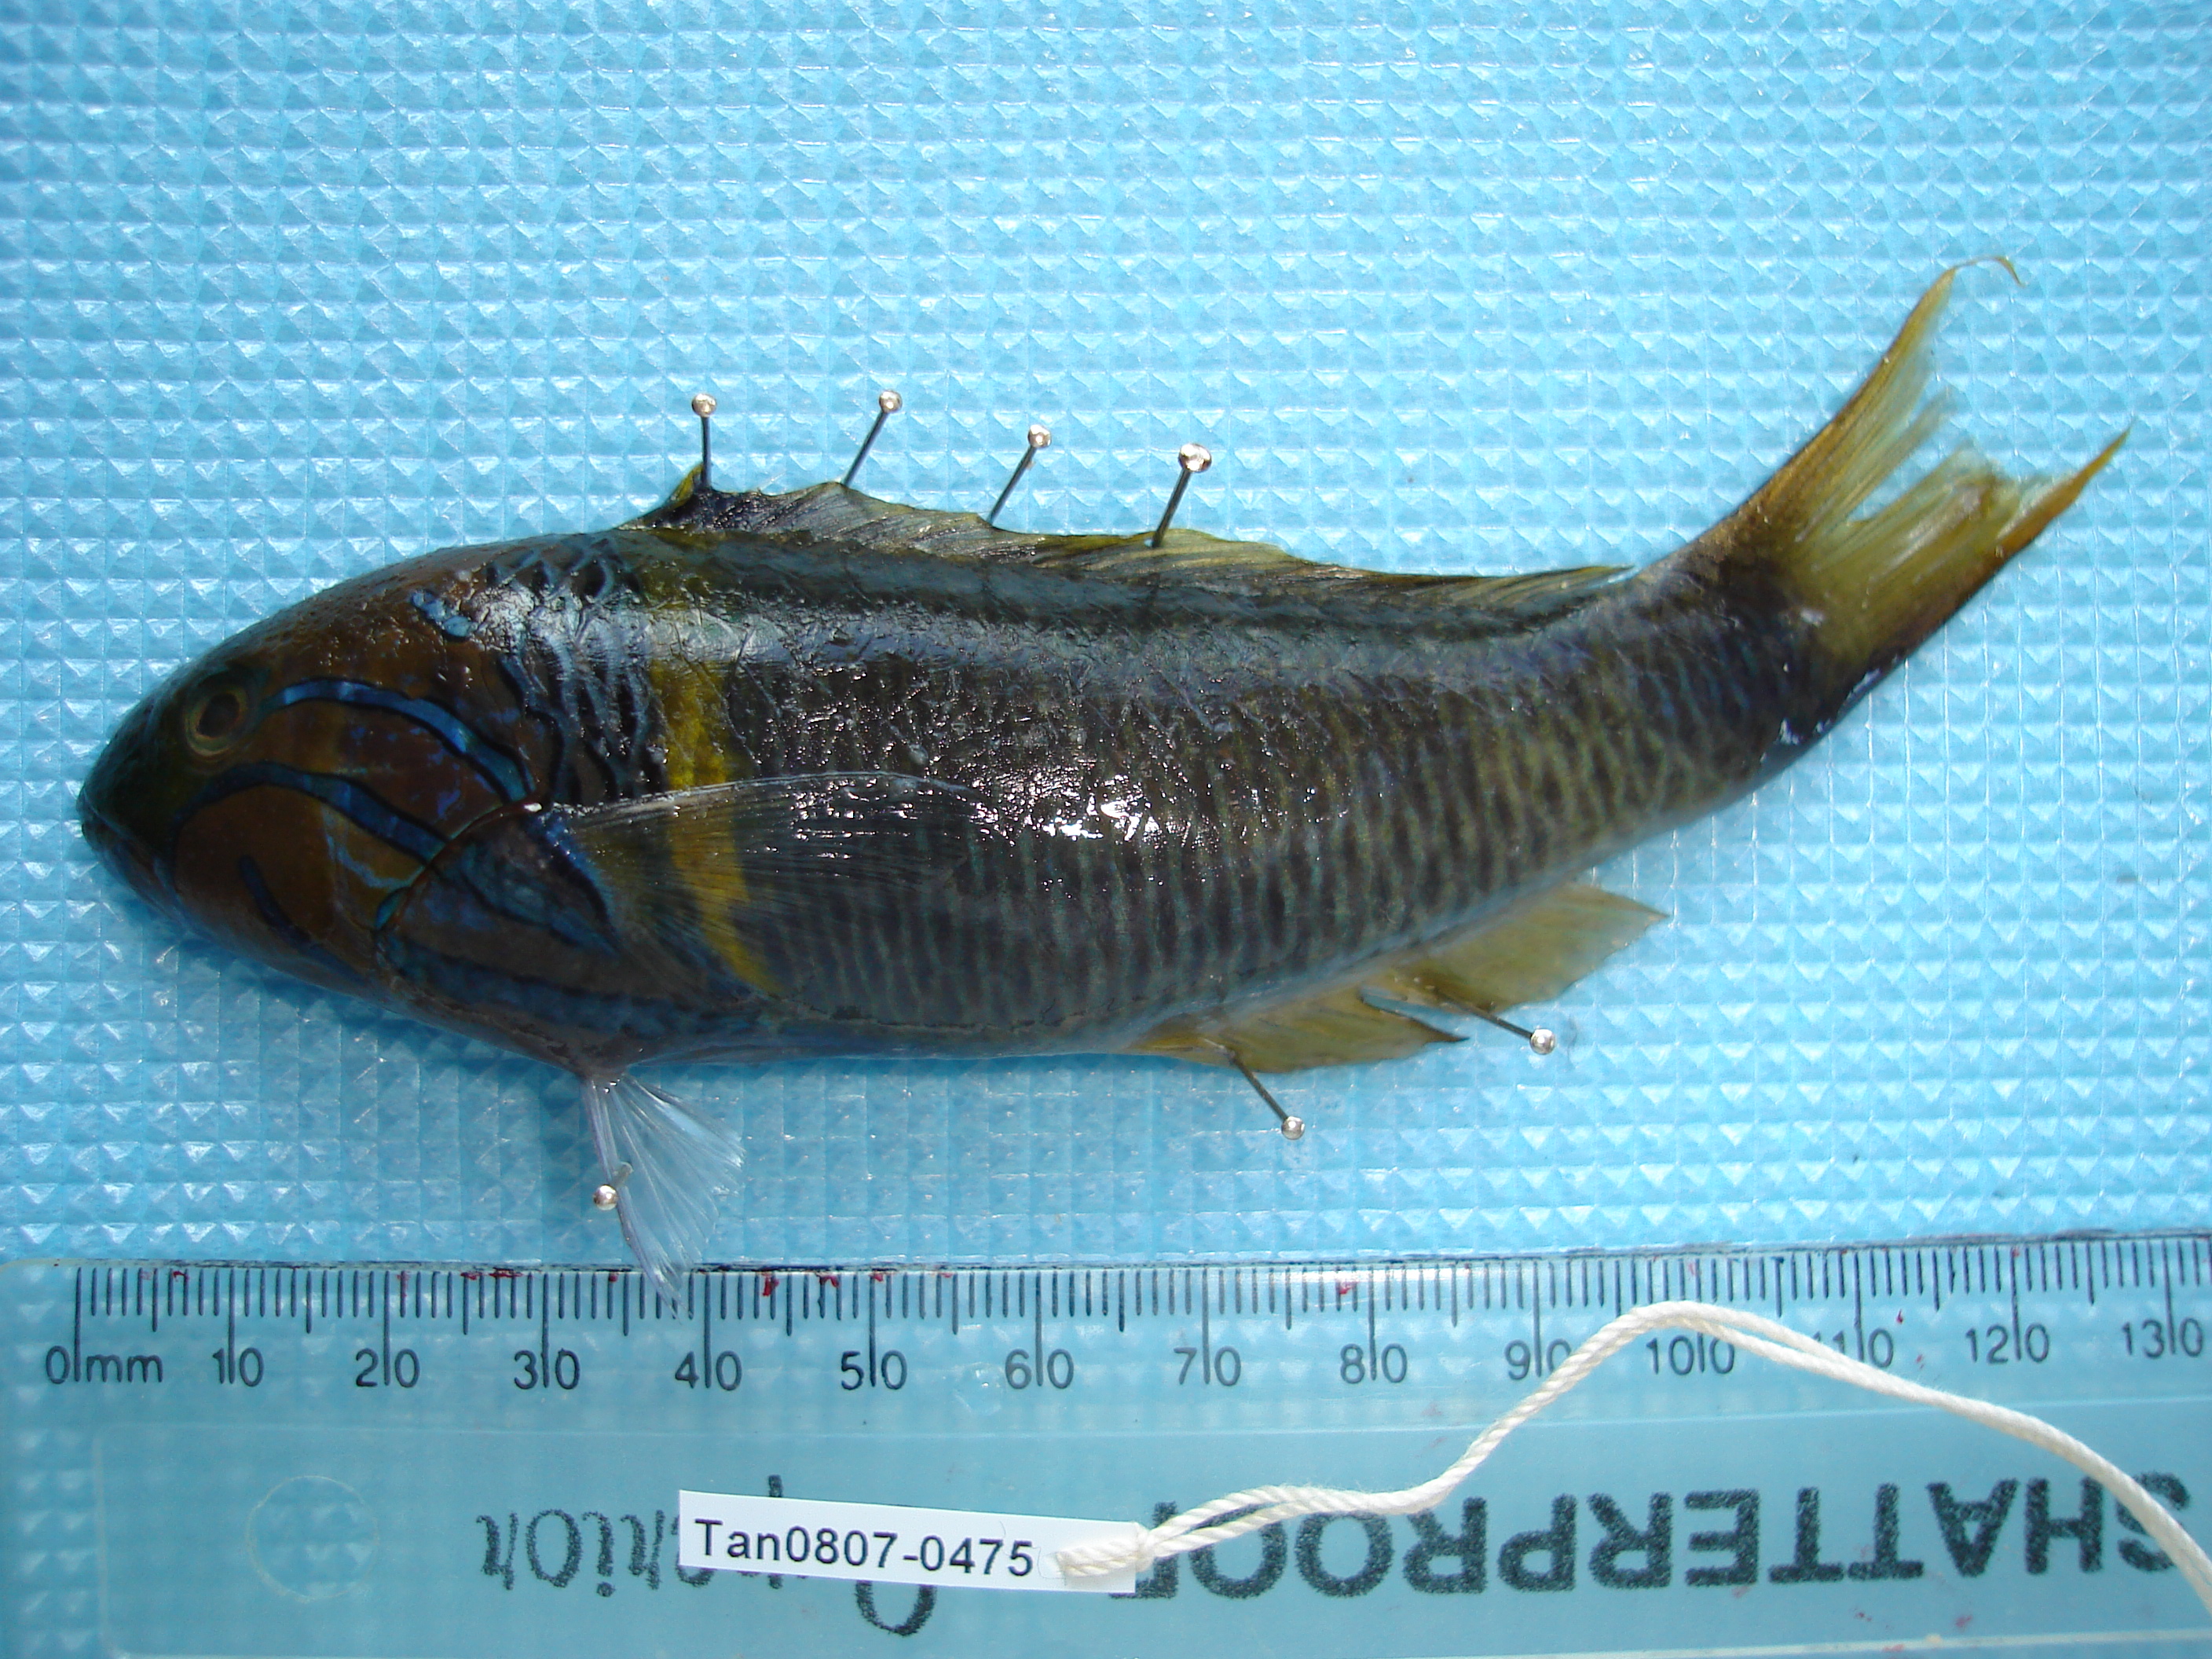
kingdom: Animalia
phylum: Chordata
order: Perciformes
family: Labridae
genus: Thalassoma
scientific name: Thalassoma hebraicum
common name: Goldbar wrasse
